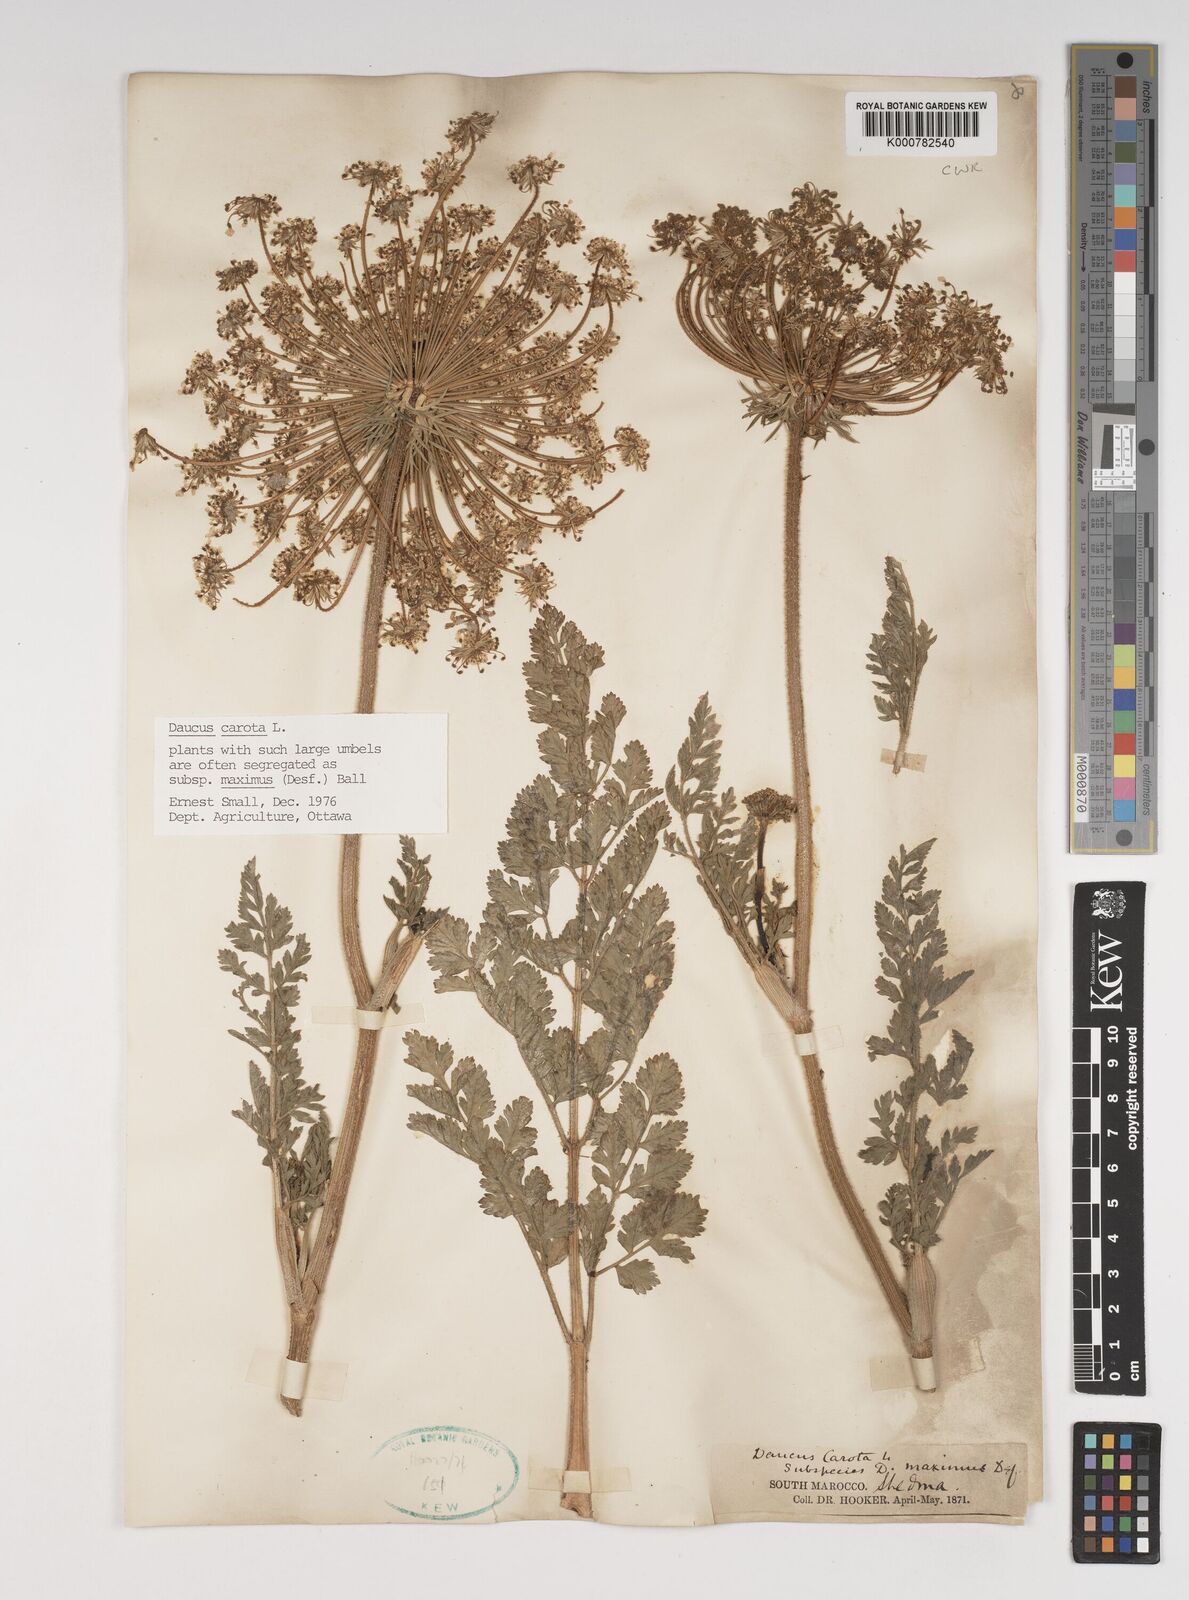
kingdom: Plantae
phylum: Tracheophyta
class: Magnoliopsida
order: Apiales
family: Apiaceae
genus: Daucus
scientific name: Daucus carota
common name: Wild carrot
